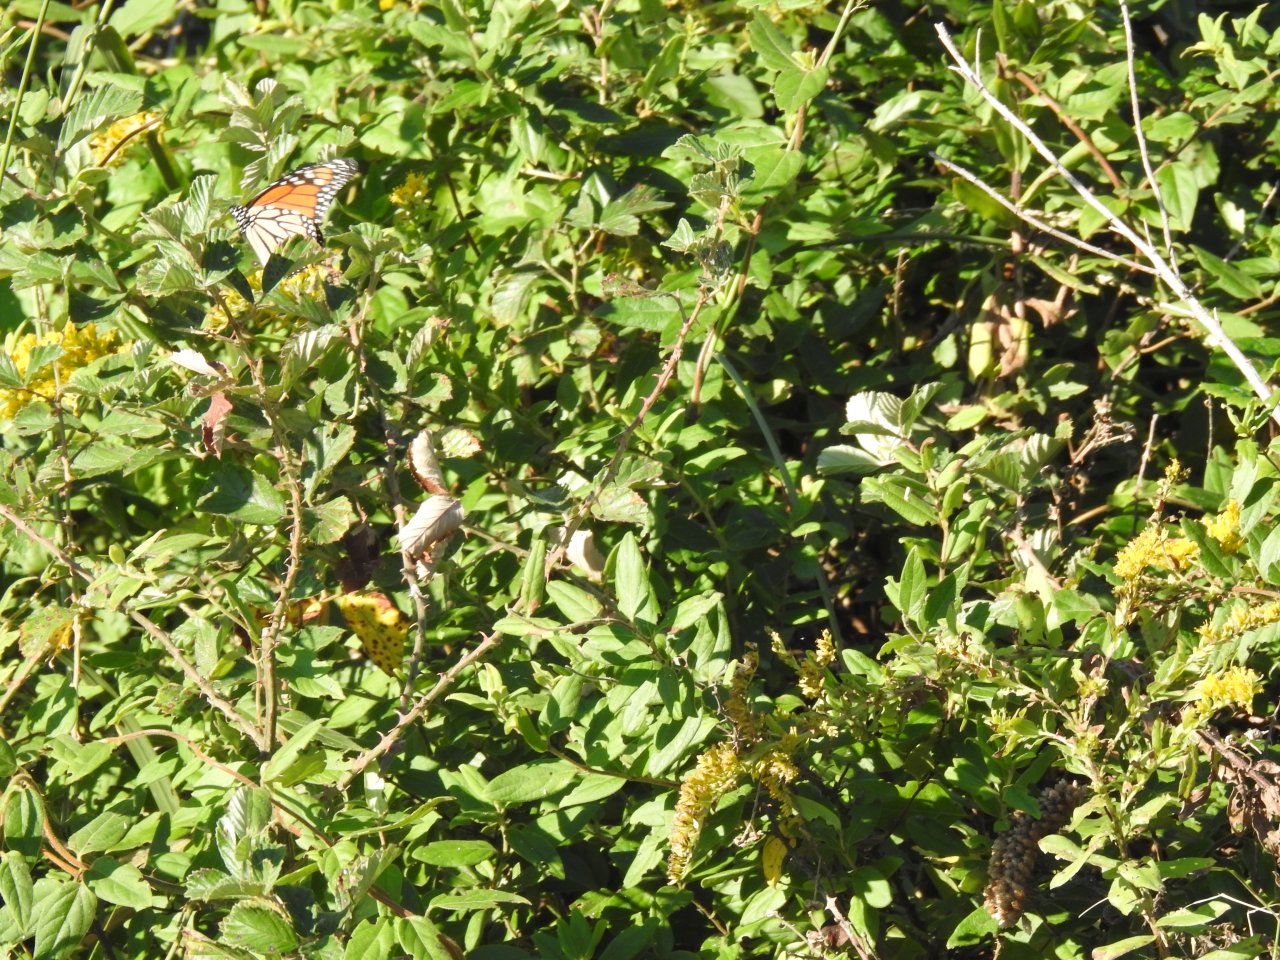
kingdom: Animalia
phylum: Arthropoda
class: Insecta
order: Lepidoptera
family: Nymphalidae
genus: Danaus
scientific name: Danaus plexippus
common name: Monarch
